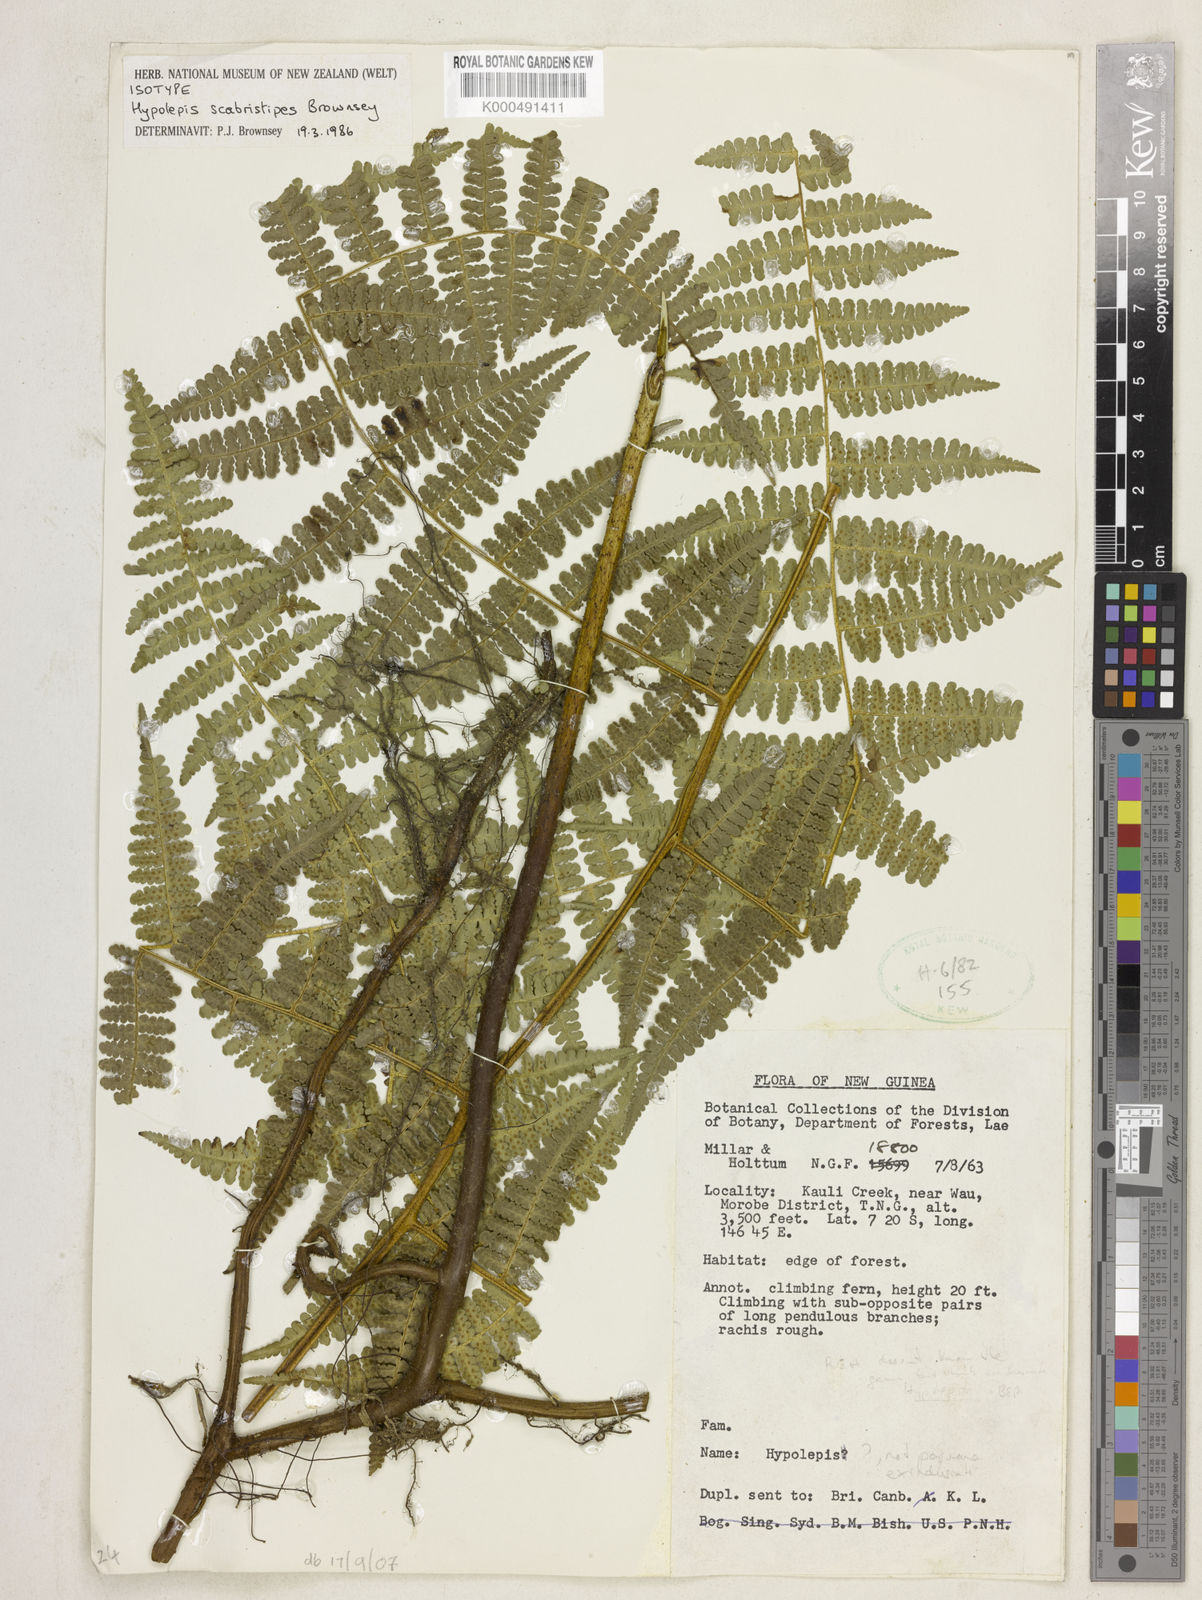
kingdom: Plantae
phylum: Tracheophyta
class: Polypodiopsida
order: Polypodiales
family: Dennstaedtiaceae
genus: Hiya
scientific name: Hiya scabristipes
